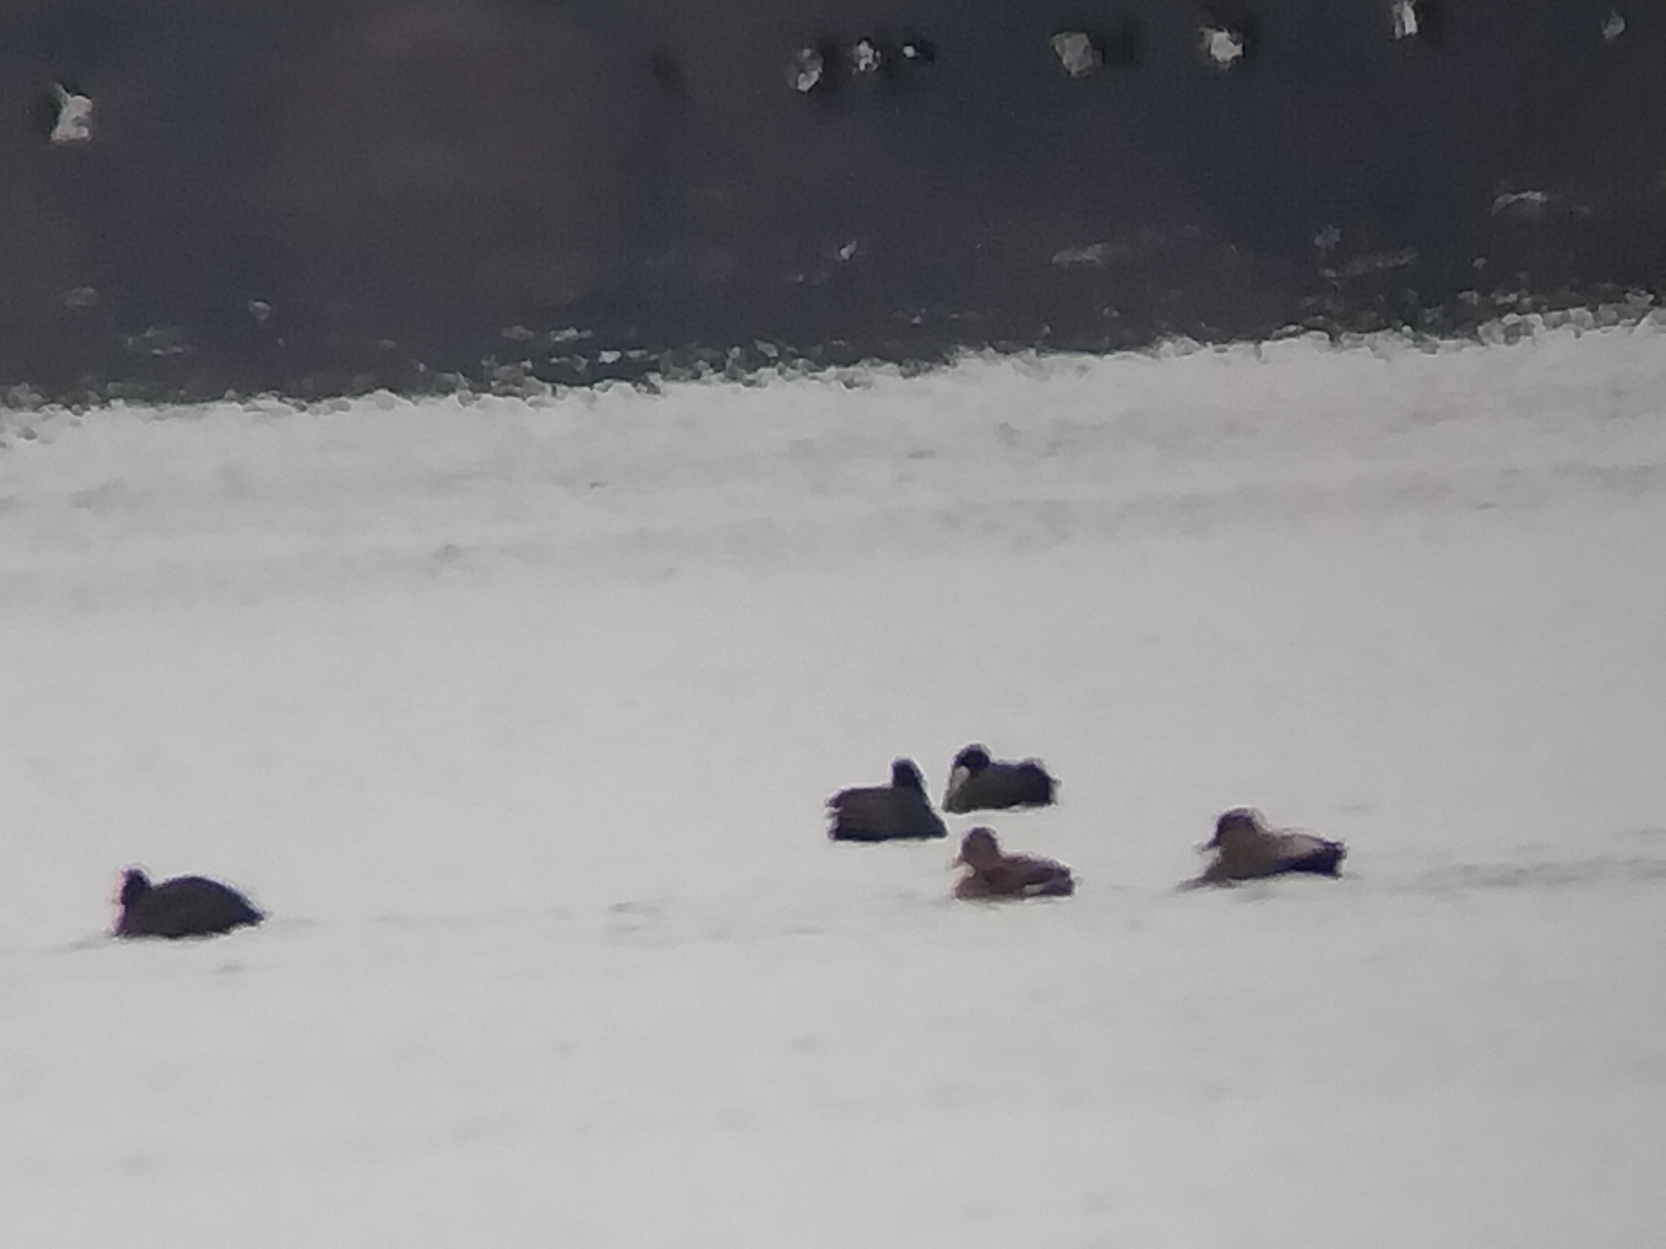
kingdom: Animalia
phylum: Chordata
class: Aves
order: Anseriformes
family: Anatidae
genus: Mareca
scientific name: Mareca strepera
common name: Knarand
